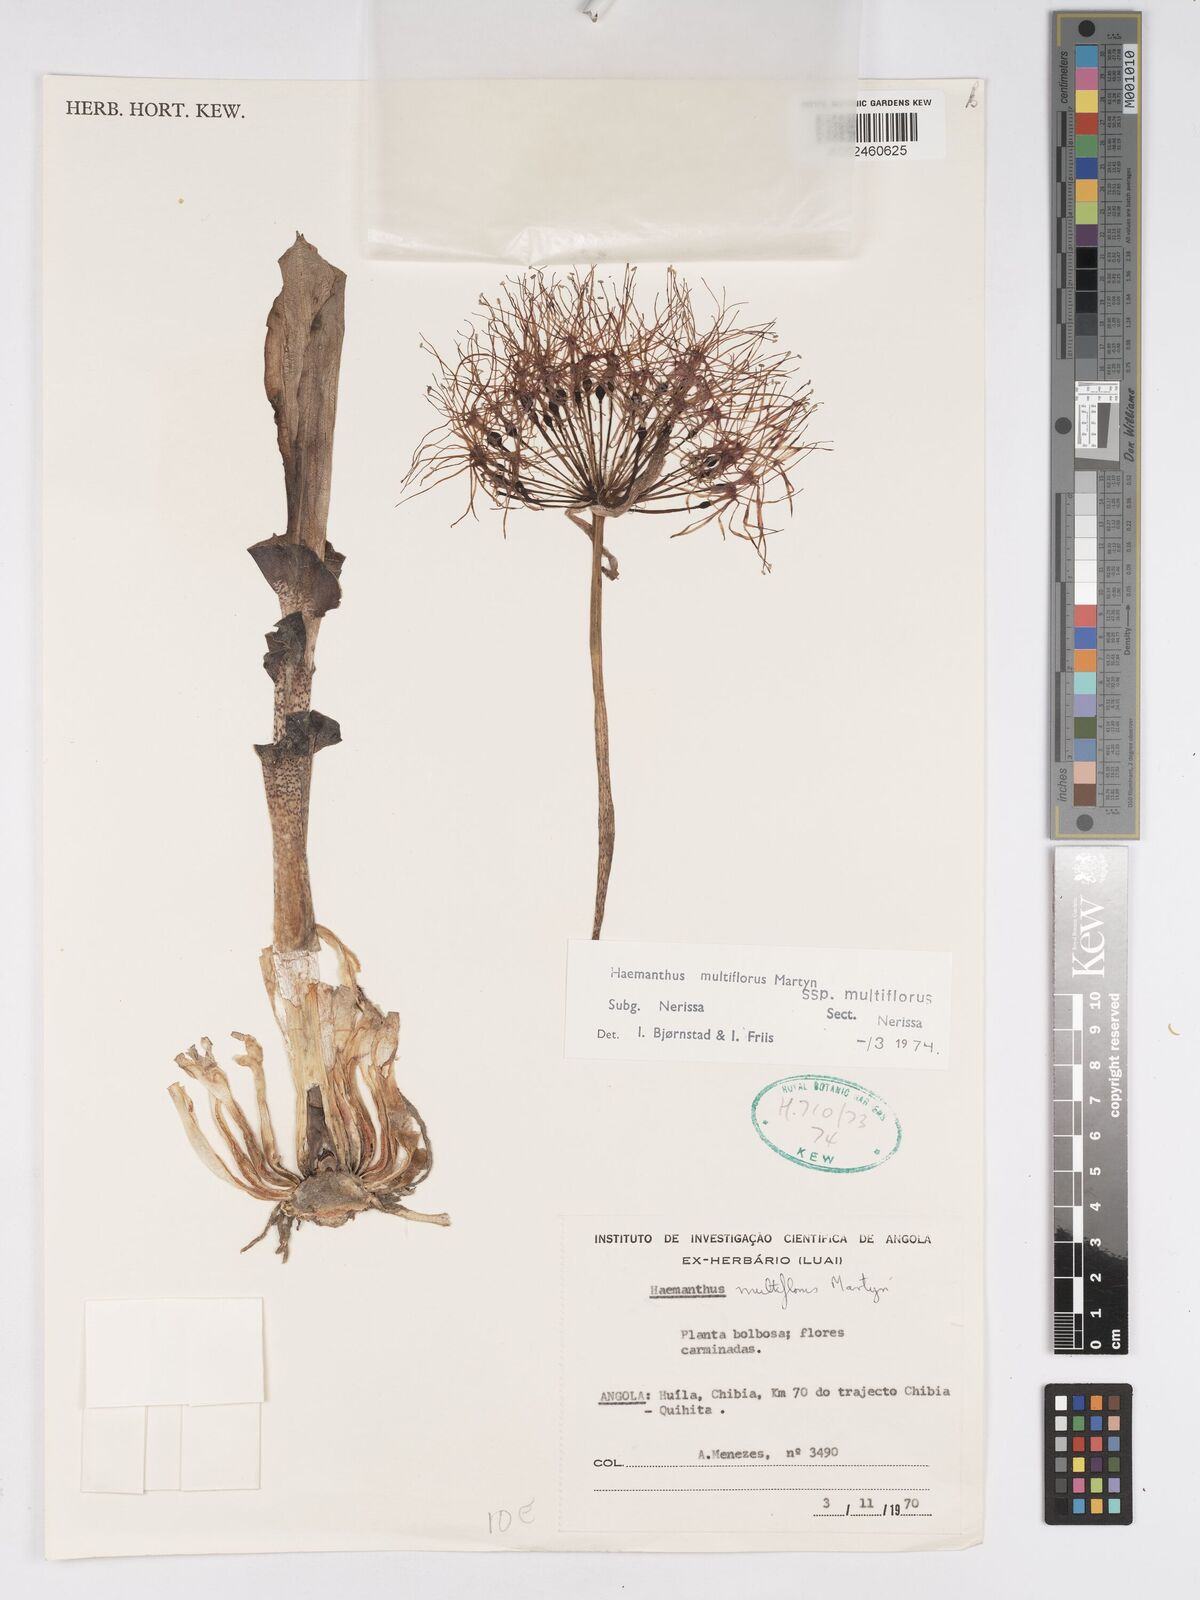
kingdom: Plantae
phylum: Tracheophyta
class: Liliopsida
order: Asparagales
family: Amaryllidaceae
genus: Scadoxus
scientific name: Scadoxus multiflorus
